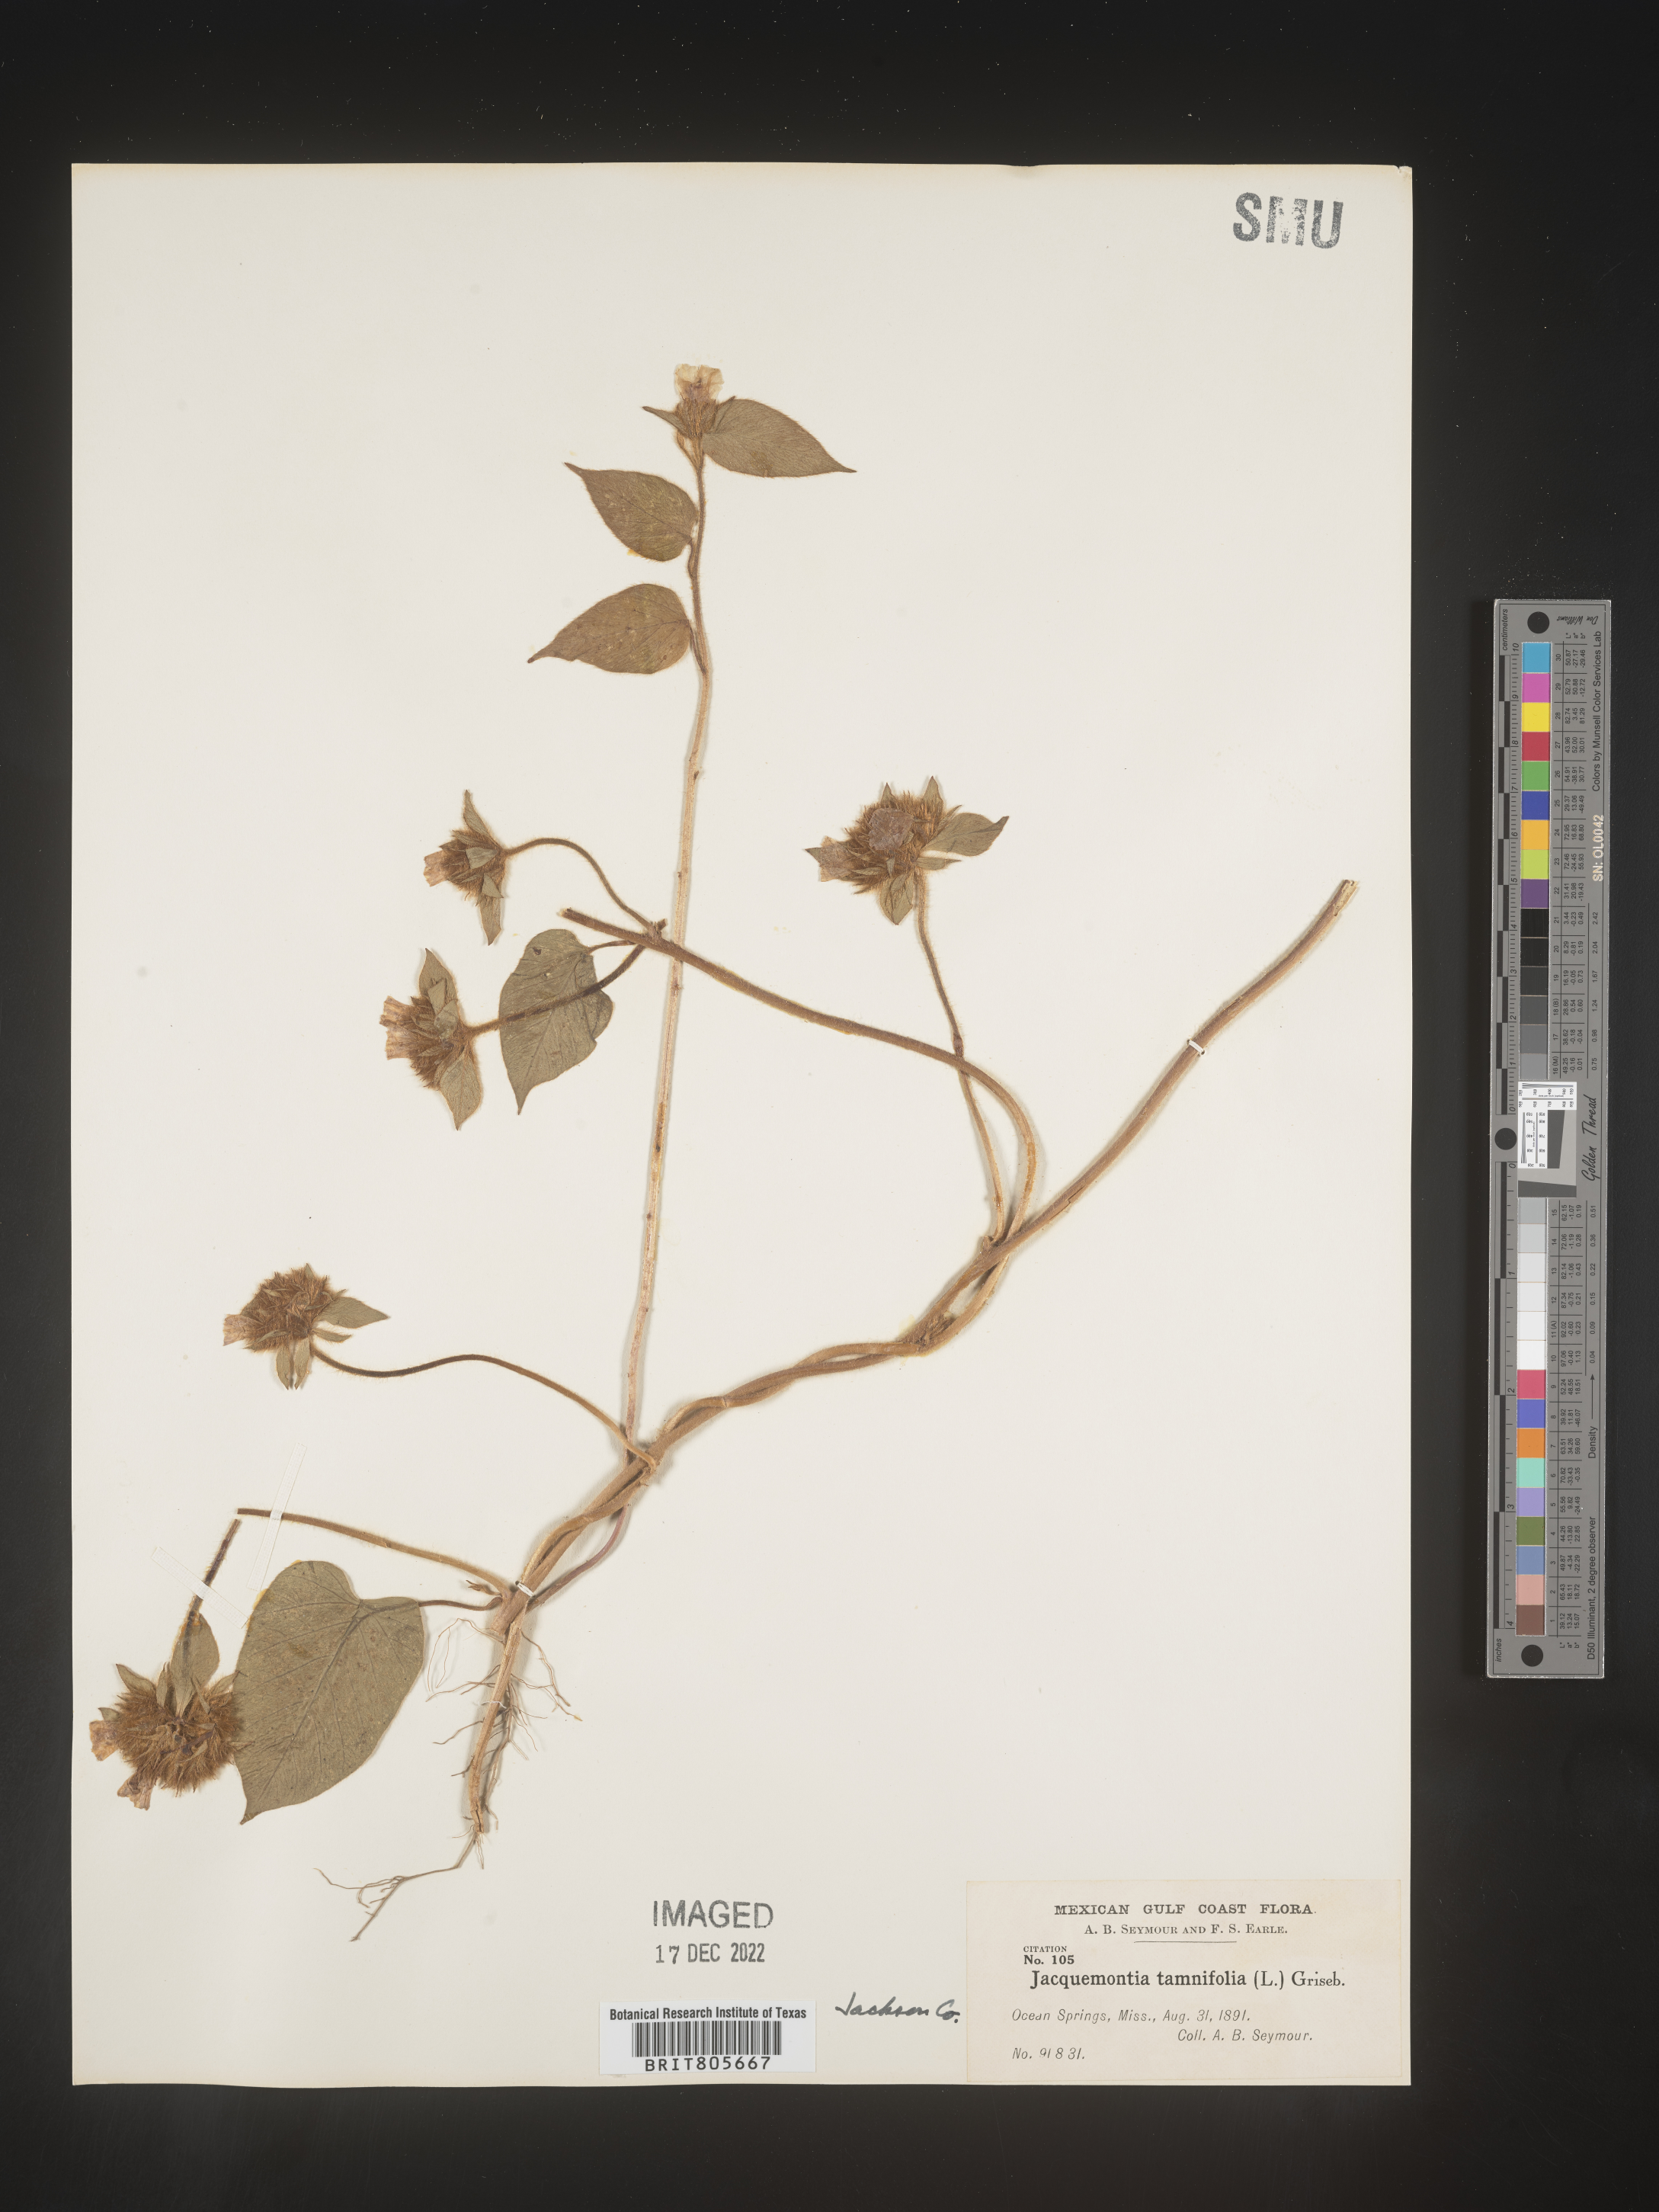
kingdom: Plantae
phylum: Tracheophyta
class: Magnoliopsida
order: Solanales
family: Convolvulaceae
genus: Jacquemontia
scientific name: Jacquemontia tamnifolia
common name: Hairy clustervine
